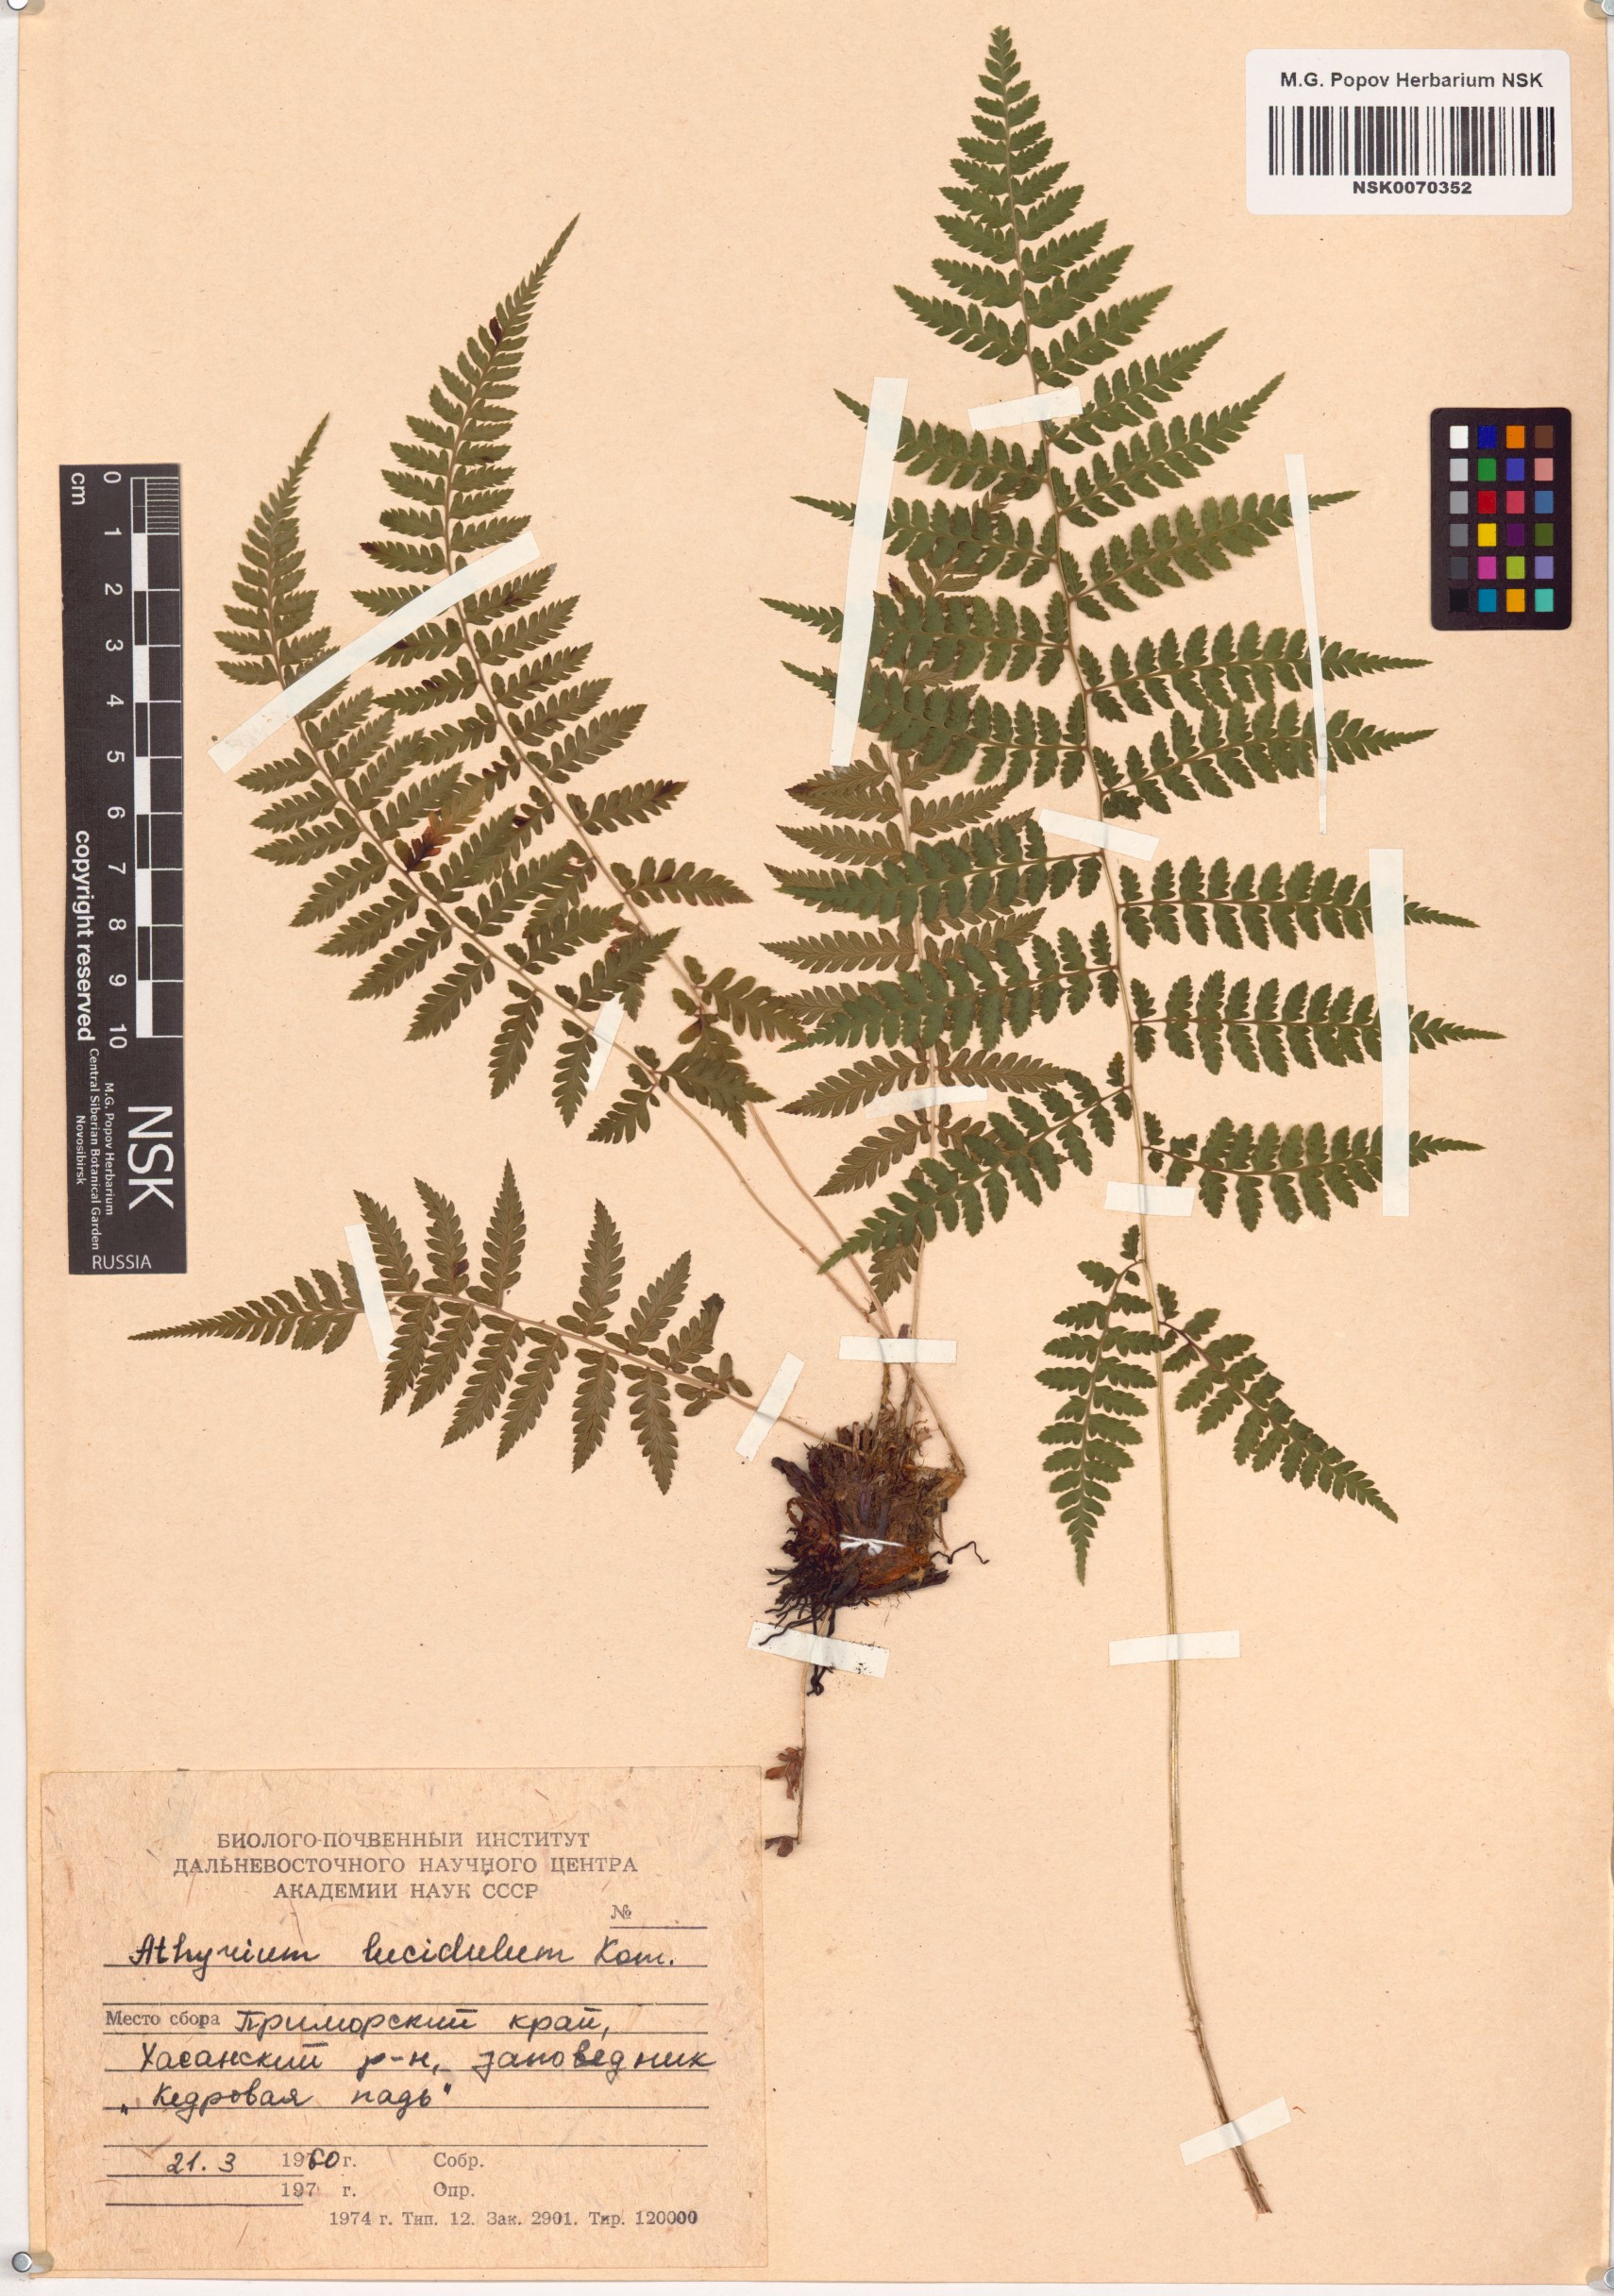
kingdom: Plantae
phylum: Tracheophyta
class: Polypodiopsida
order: Polypodiales
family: Athyriaceae
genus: Athyrium
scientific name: Athyrium yokoscense
